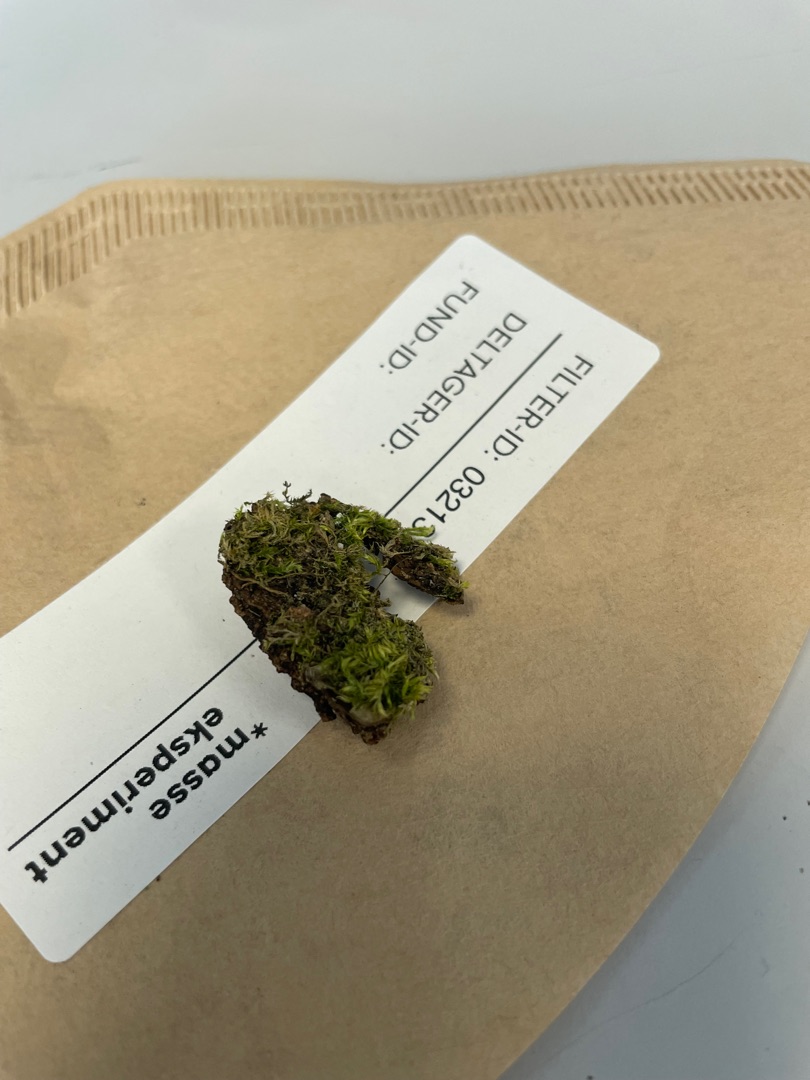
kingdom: Plantae
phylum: Bryophyta
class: Bryopsida
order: Hypnales
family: Hypnaceae
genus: Hypnum
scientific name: Hypnum
